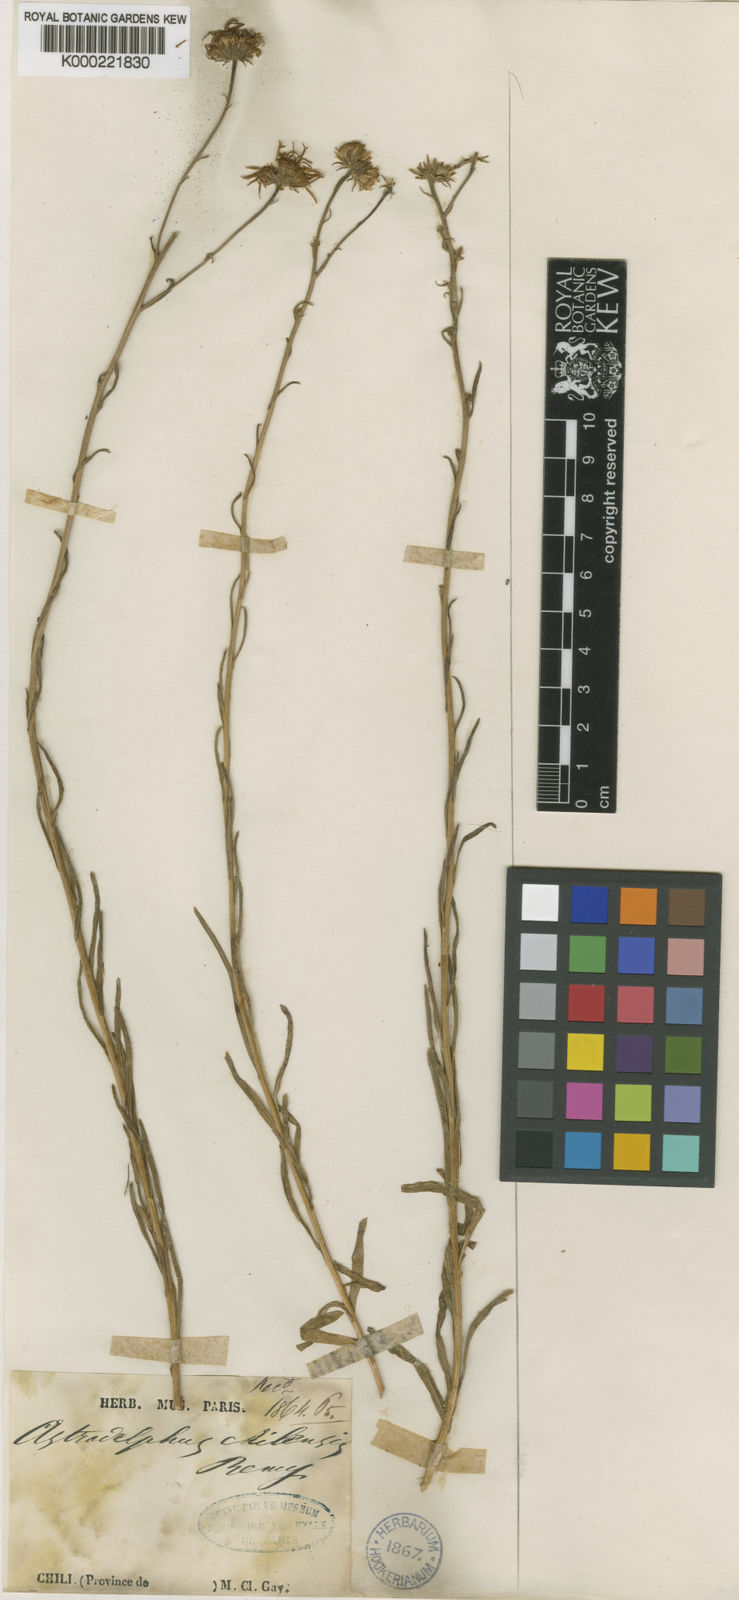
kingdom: Plantae
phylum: Tracheophyta
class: Magnoliopsida
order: Asterales
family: Asteraceae
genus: Erigeron
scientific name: Erigeron gilliesii
